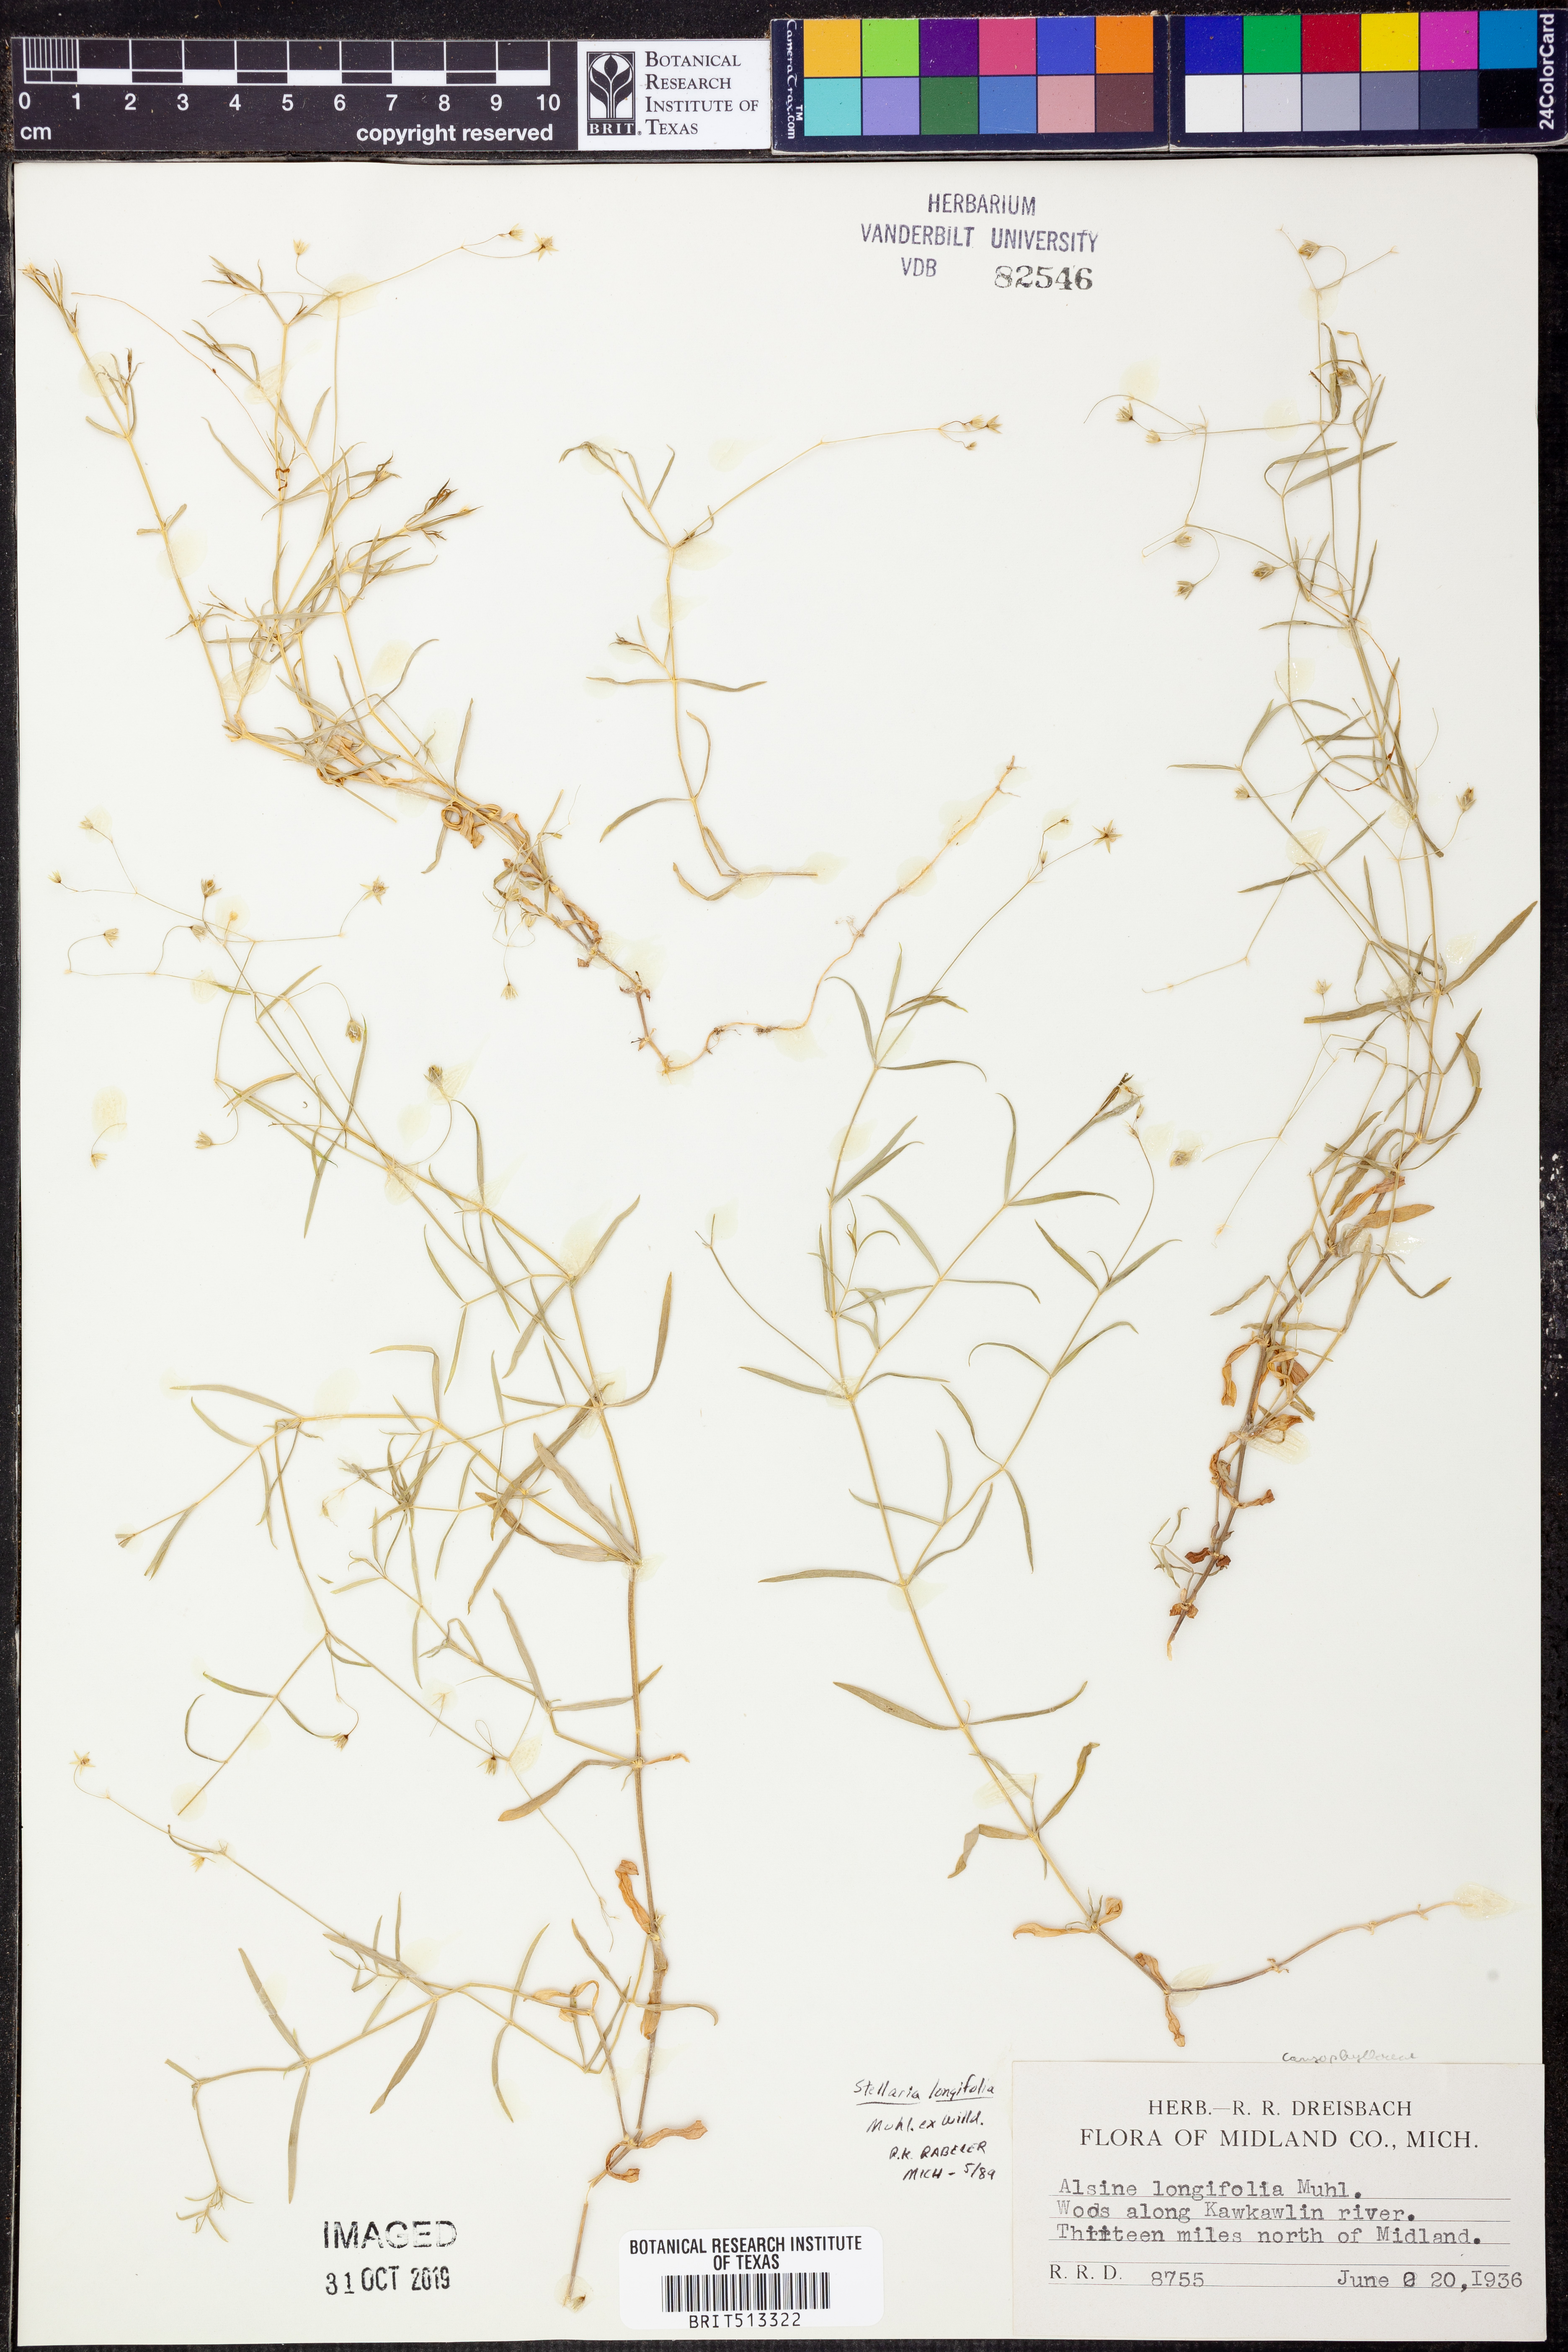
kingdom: Plantae
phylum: Tracheophyta
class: Magnoliopsida
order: Caryophyllales
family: Caryophyllaceae
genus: Stellaria
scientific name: Stellaria longifolia
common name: Long-leaved chickweed
